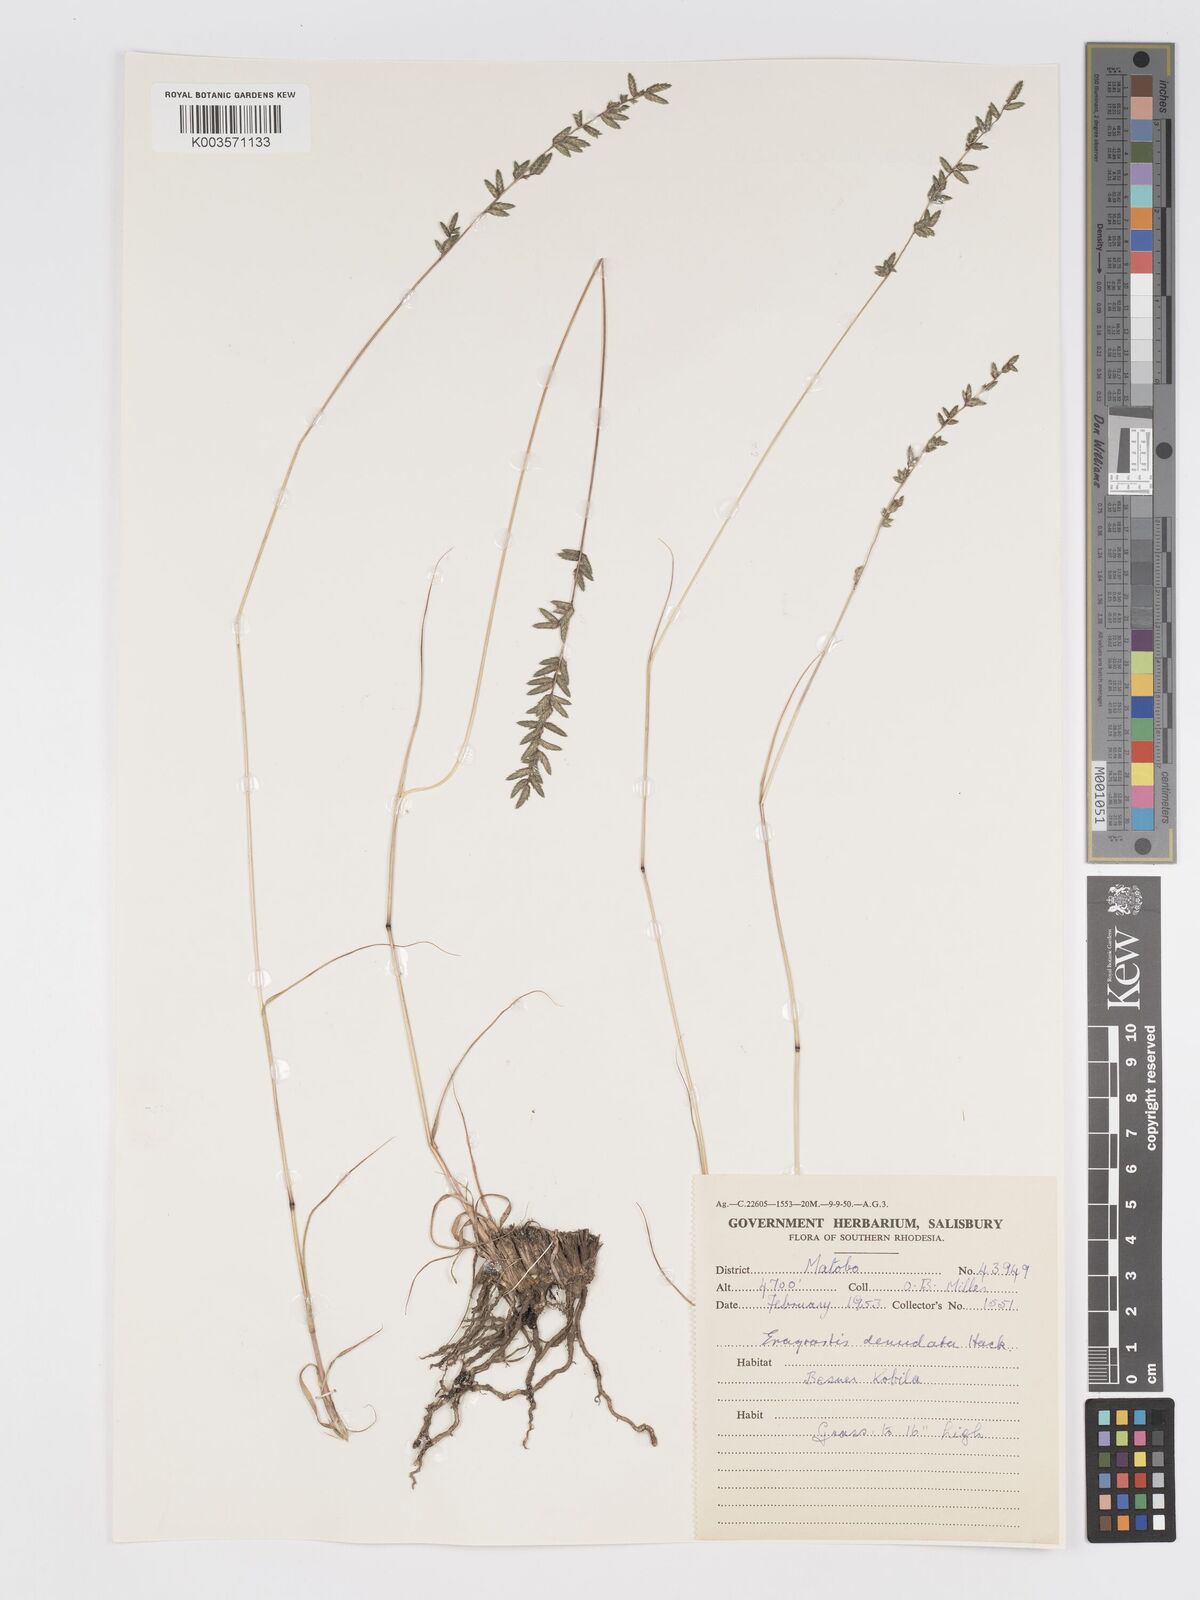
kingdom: Plantae
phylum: Tracheophyta
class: Liliopsida
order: Poales
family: Poaceae
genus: Eragrostis
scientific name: Eragrostis nindensis
